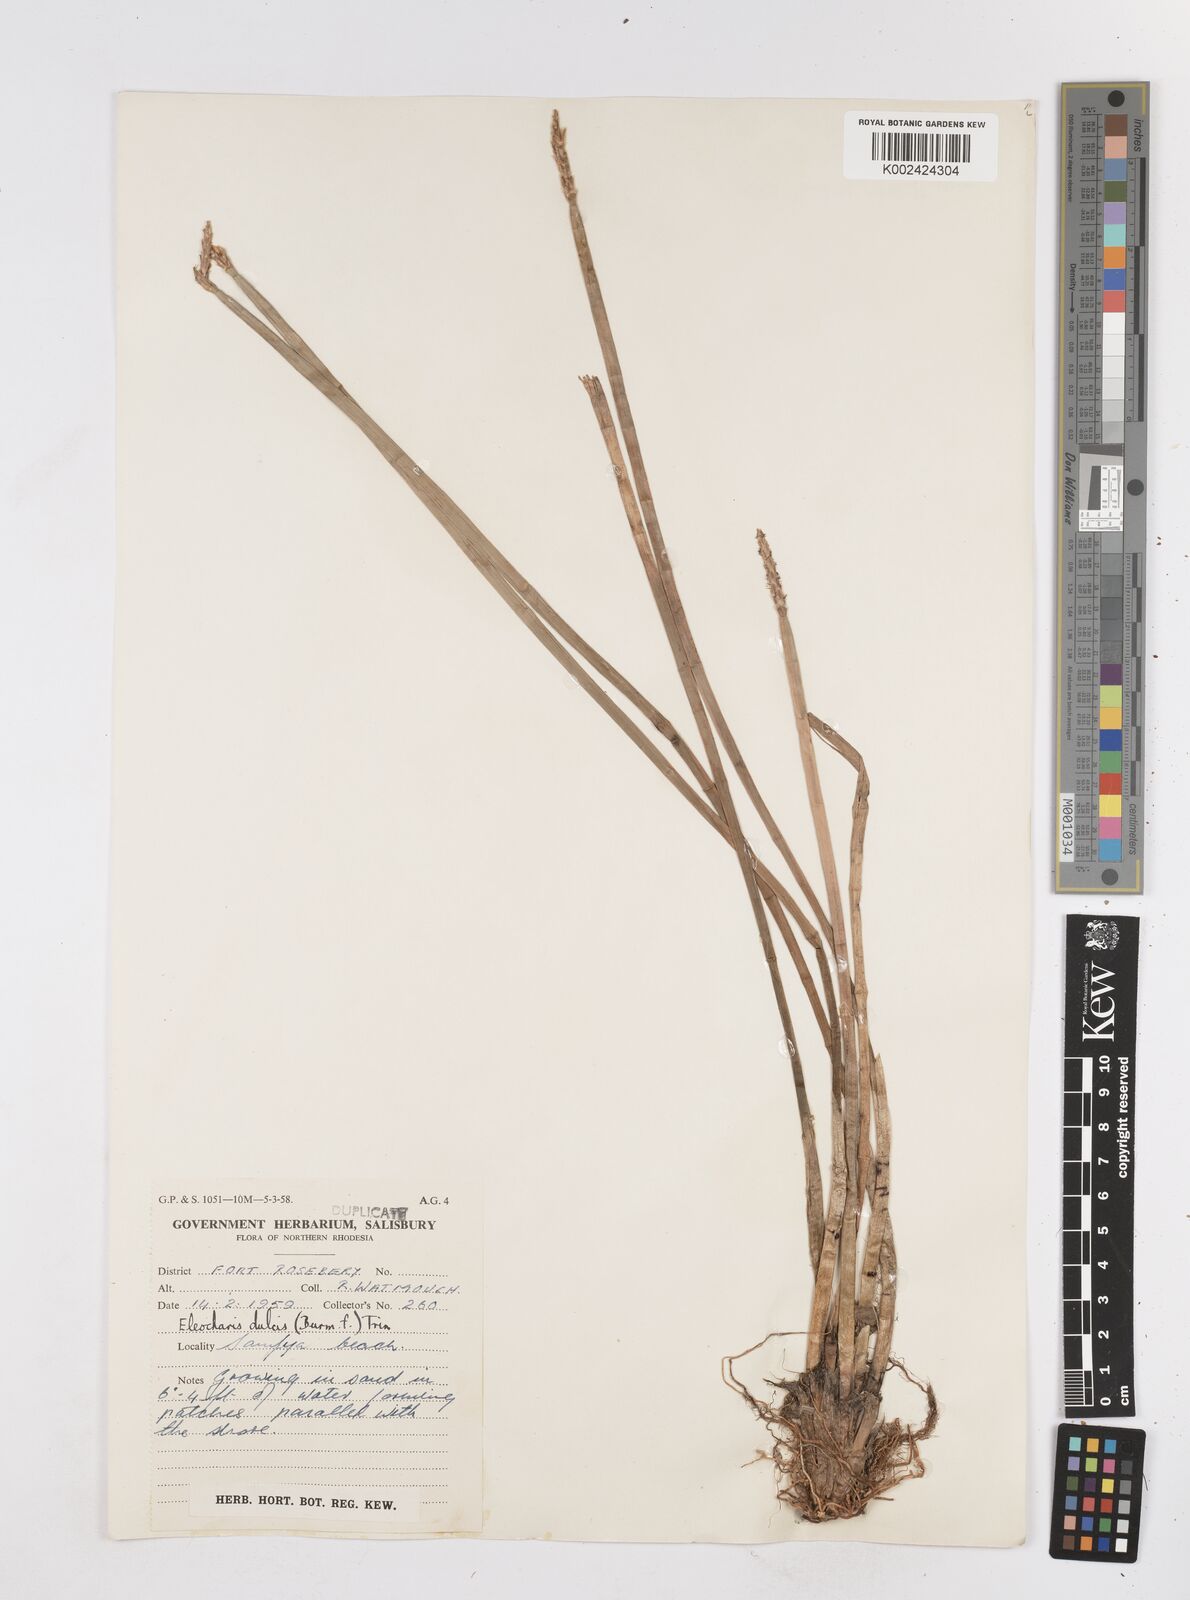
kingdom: Plantae
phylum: Tracheophyta
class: Liliopsida
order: Poales
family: Cyperaceae
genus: Eleocharis
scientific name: Eleocharis dulcis
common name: Chinese water chestnut
